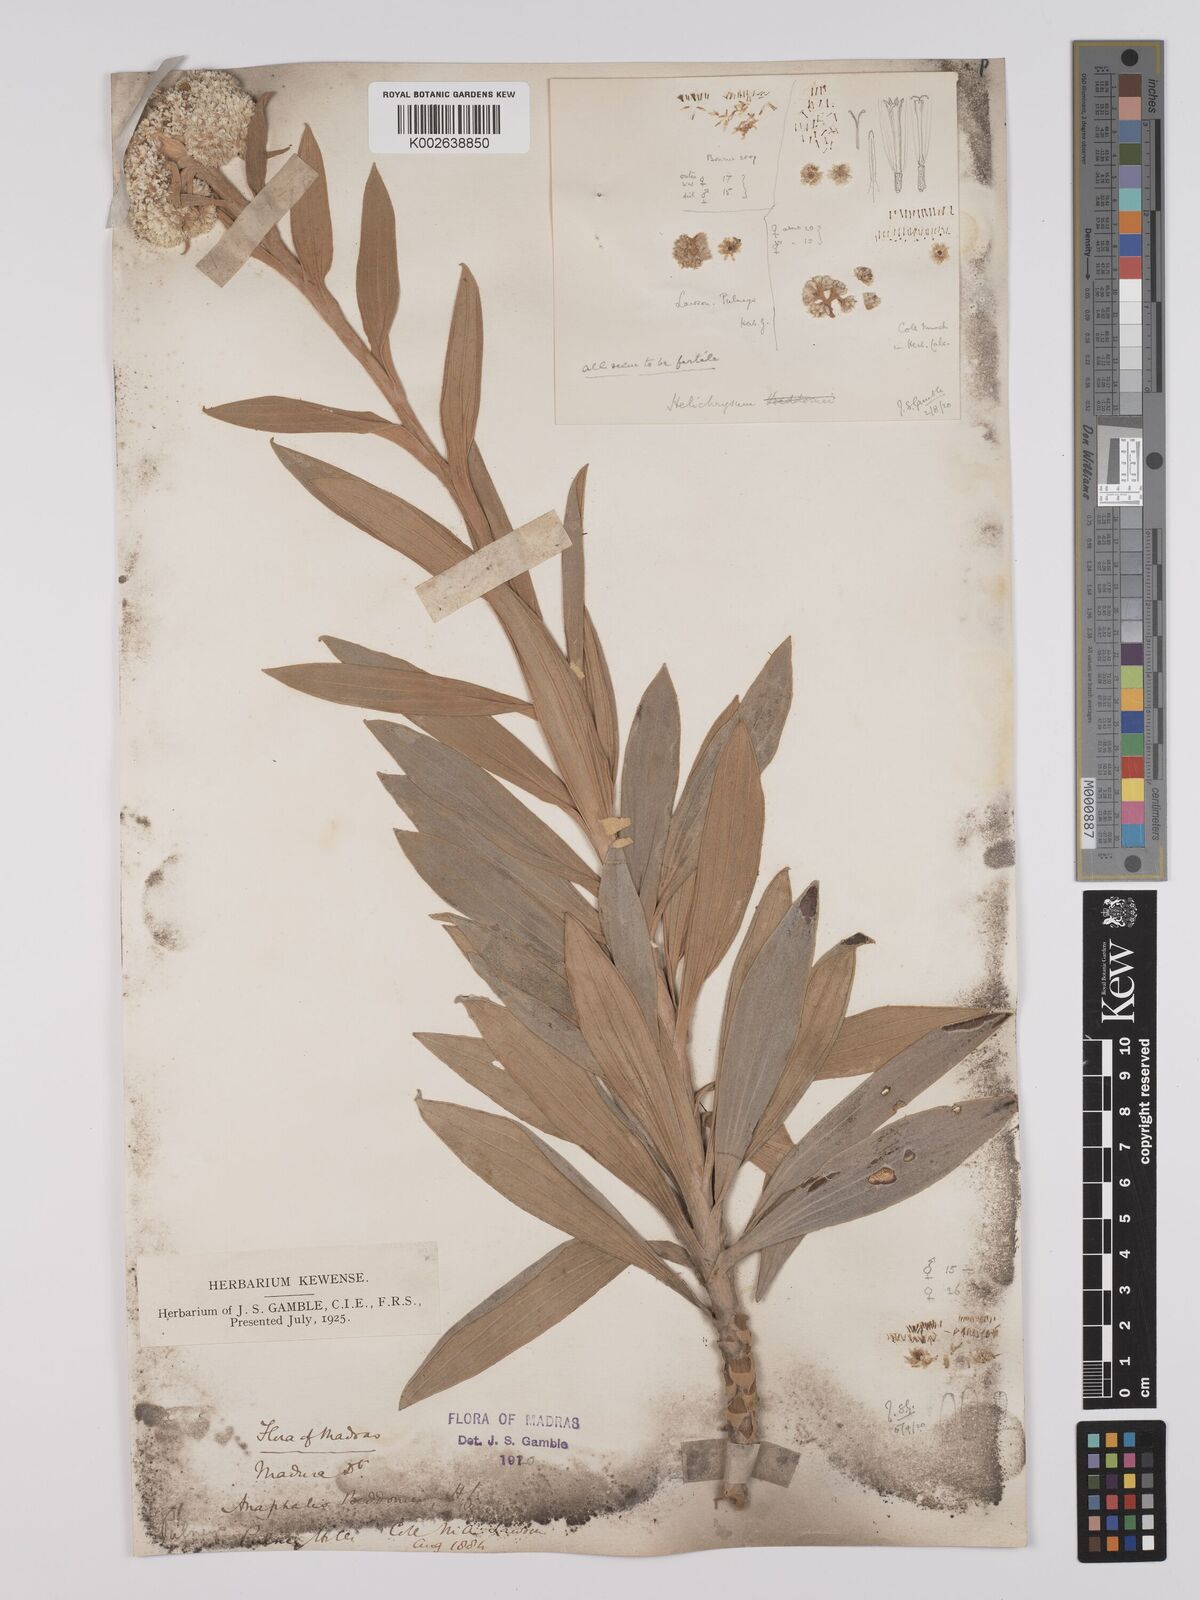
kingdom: Plantae
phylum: Tracheophyta
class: Magnoliopsida
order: Asterales
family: Asteraceae
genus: Anaphalis
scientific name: Anaphalis beddomei
